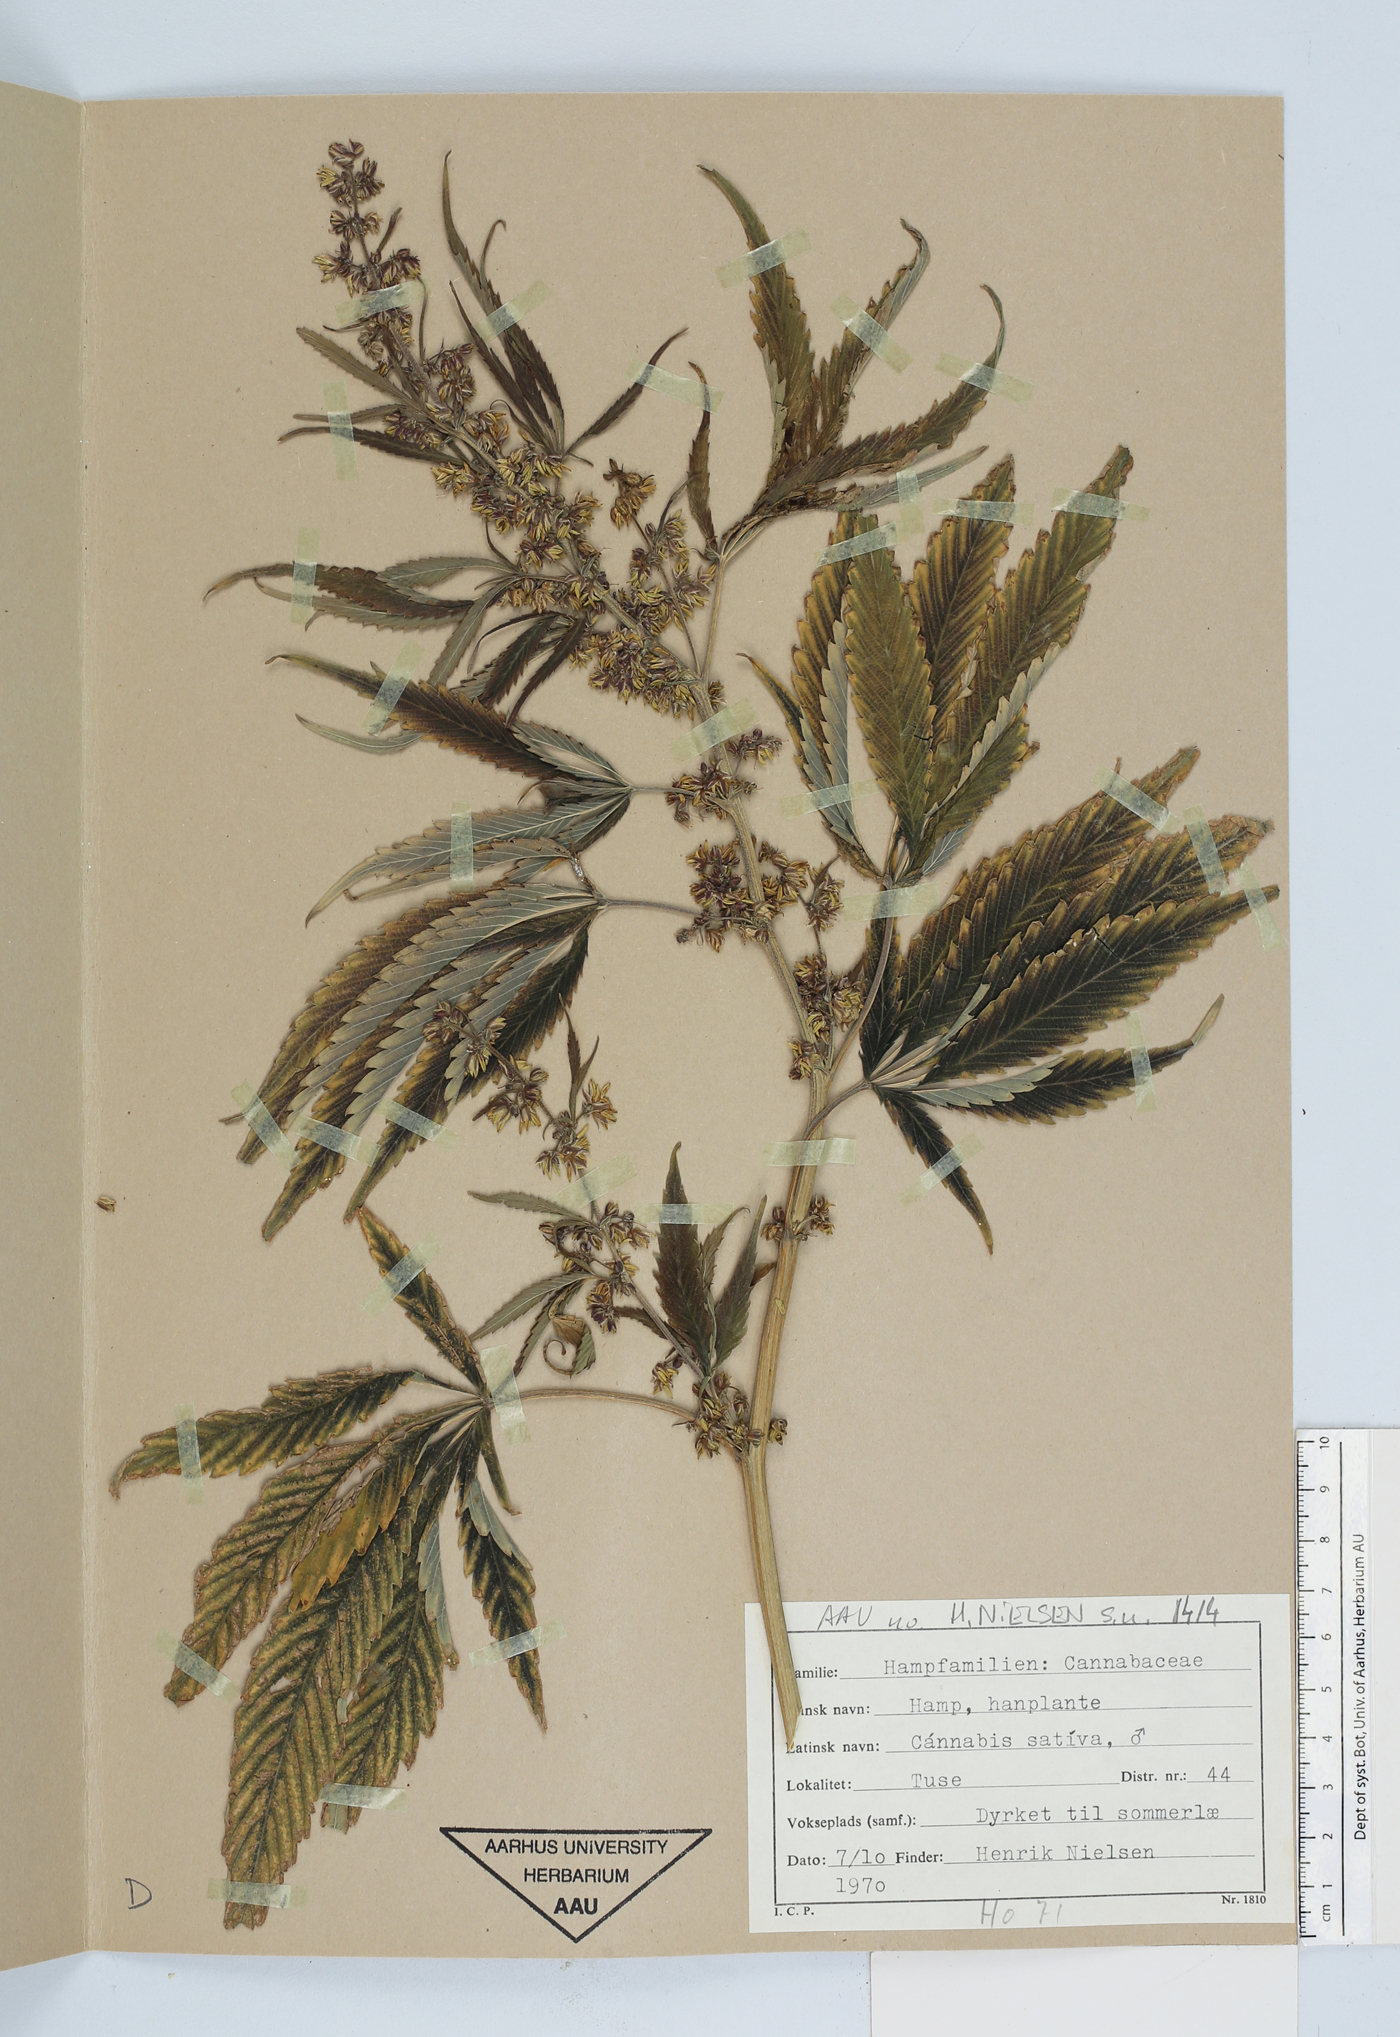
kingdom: Plantae
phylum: Tracheophyta
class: Magnoliopsida
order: Rosales
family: Cannabaceae
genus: Cannabis
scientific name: Cannabis sativa
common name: Hemp
